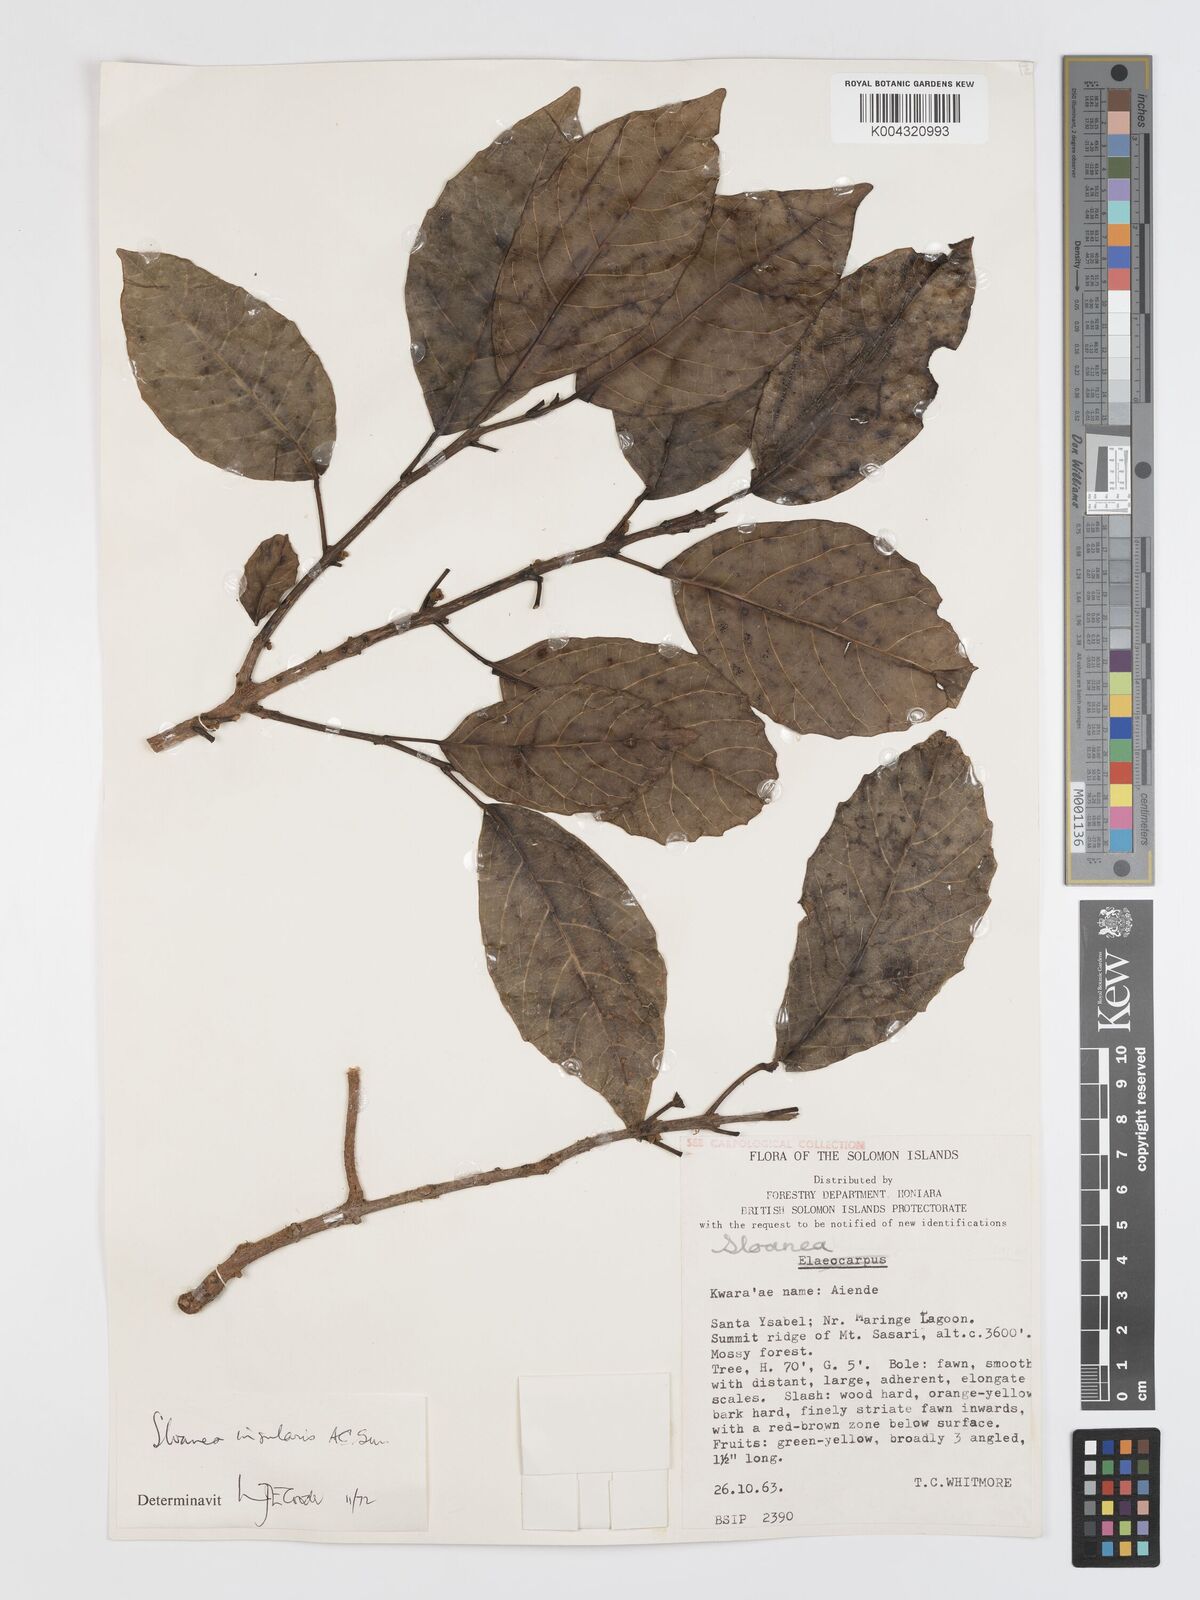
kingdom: Plantae
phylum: Tracheophyta
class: Magnoliopsida
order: Oxalidales
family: Elaeocarpaceae
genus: Sloanea
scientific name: Sloanea insularis
